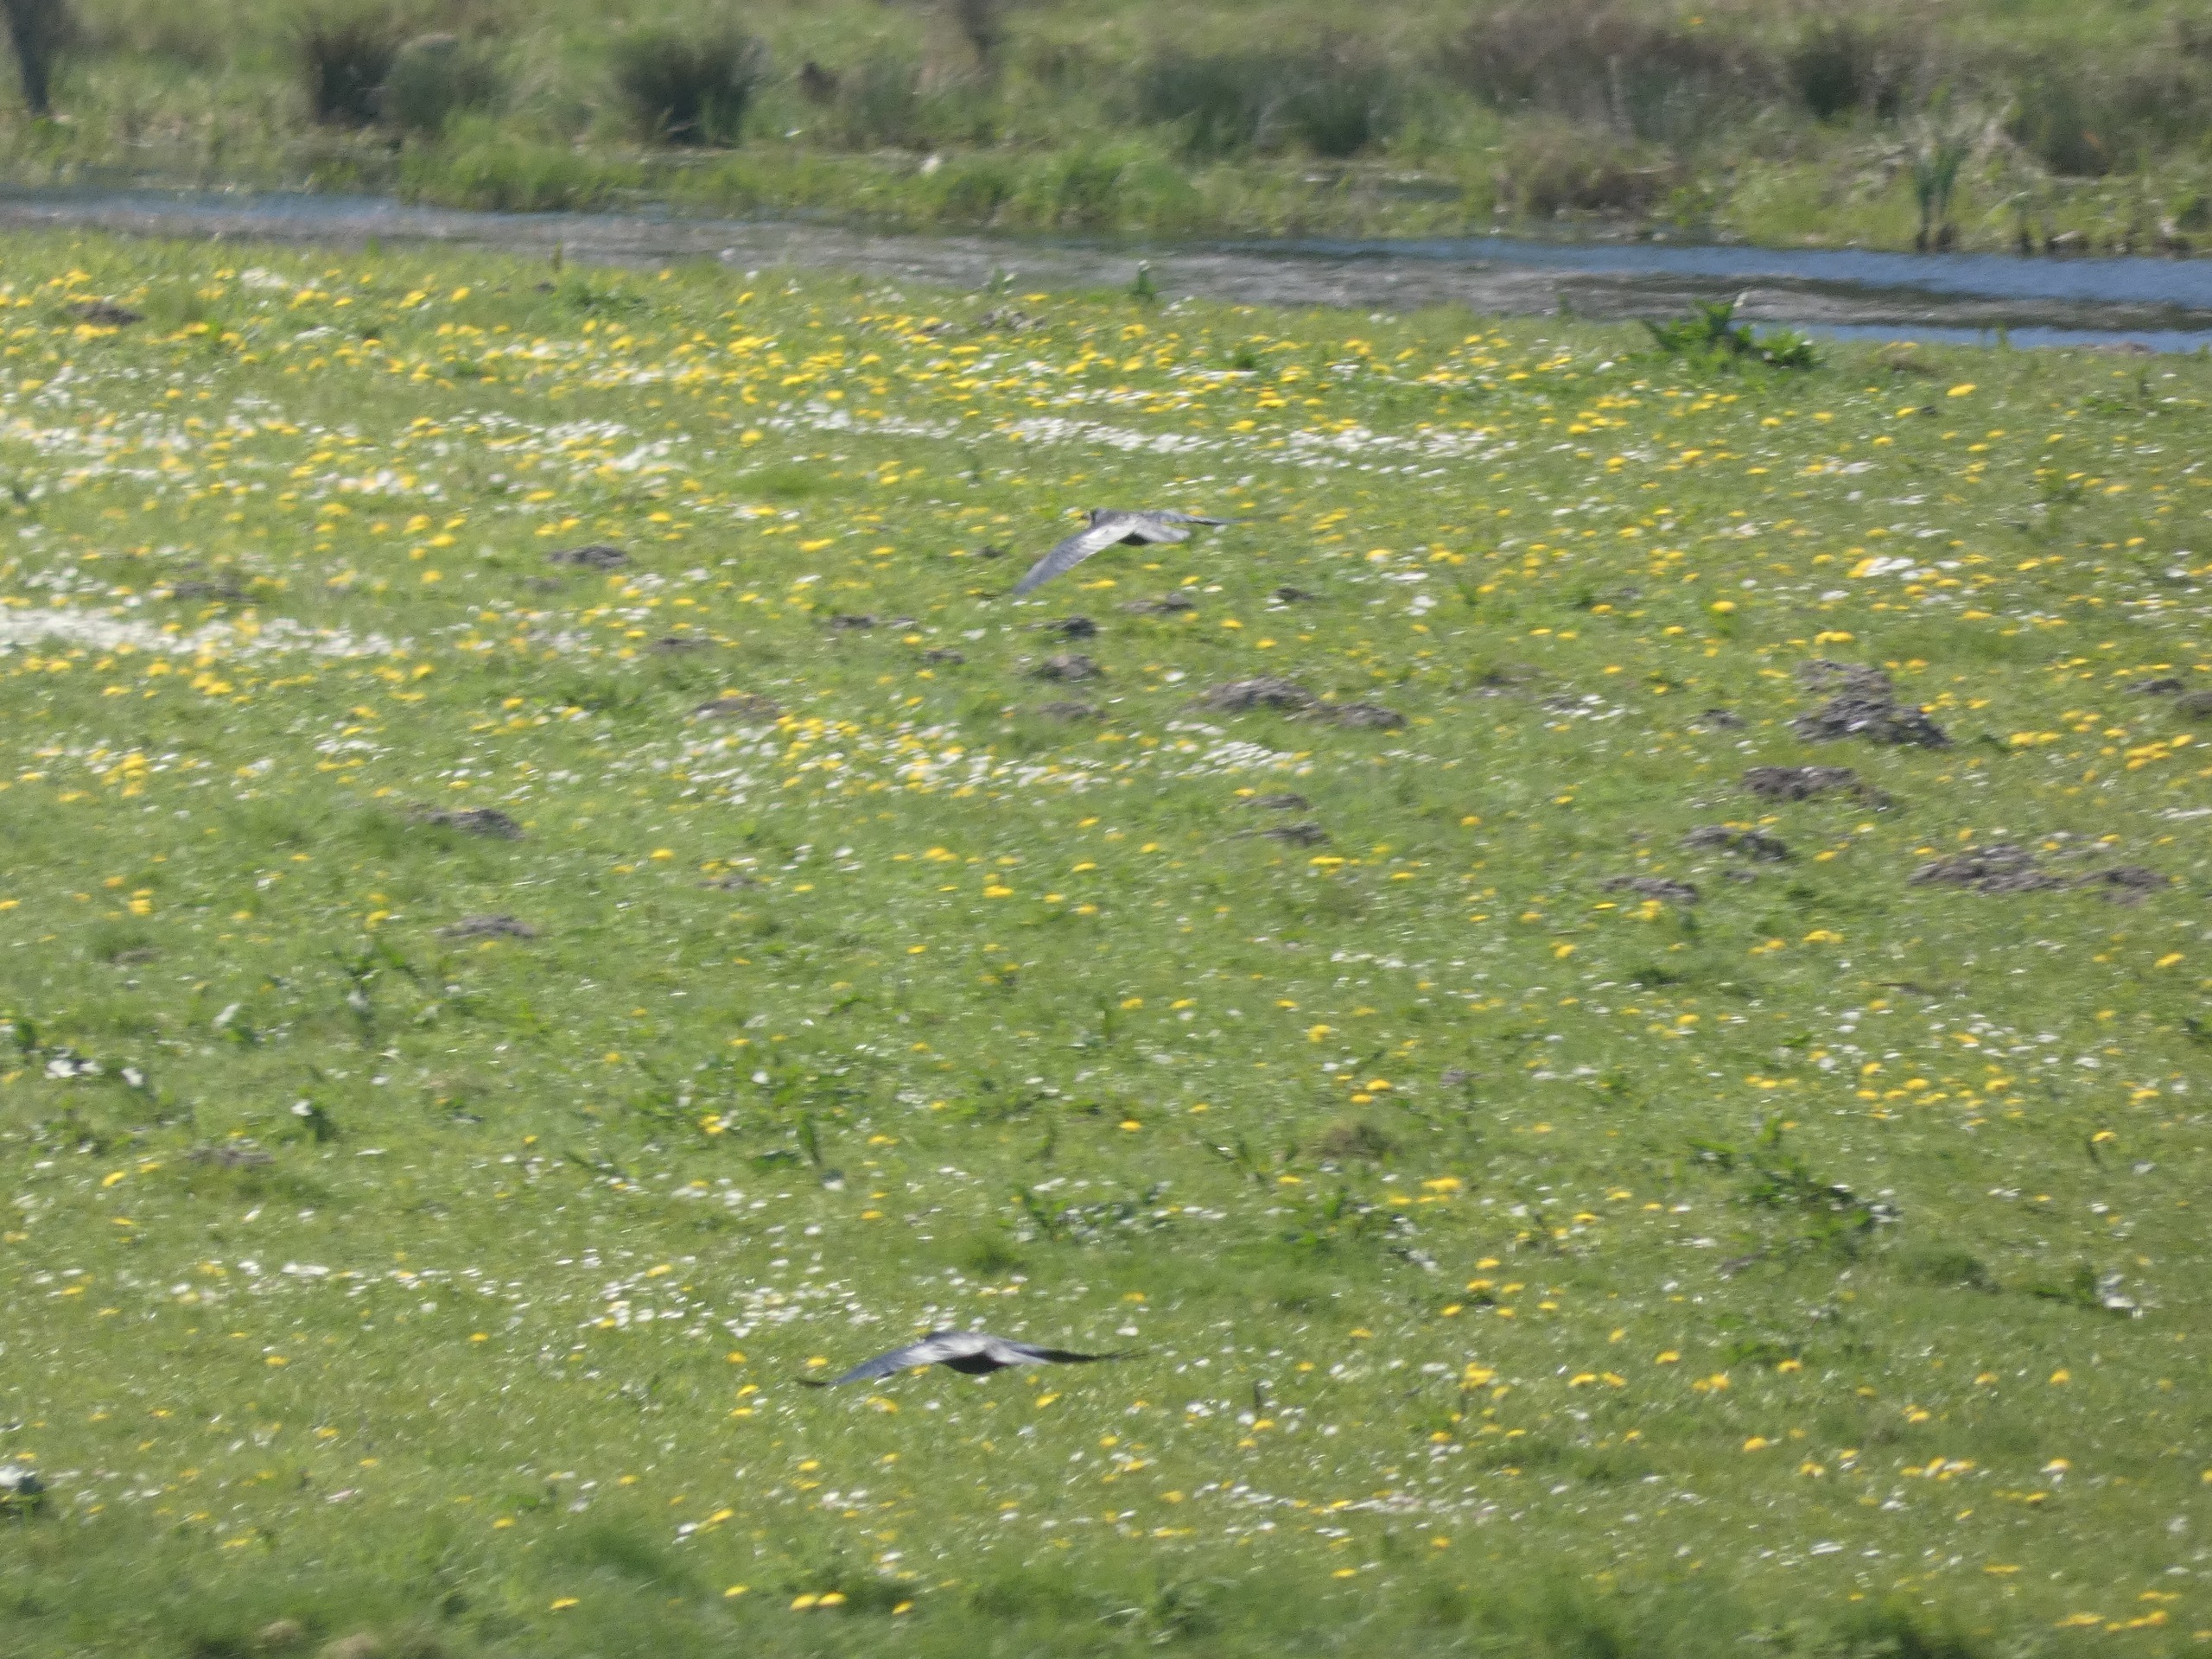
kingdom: Animalia
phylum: Chordata
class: Aves
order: Passeriformes
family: Corvidae
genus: Corvus
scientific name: Corvus frugilegus
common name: Råge
